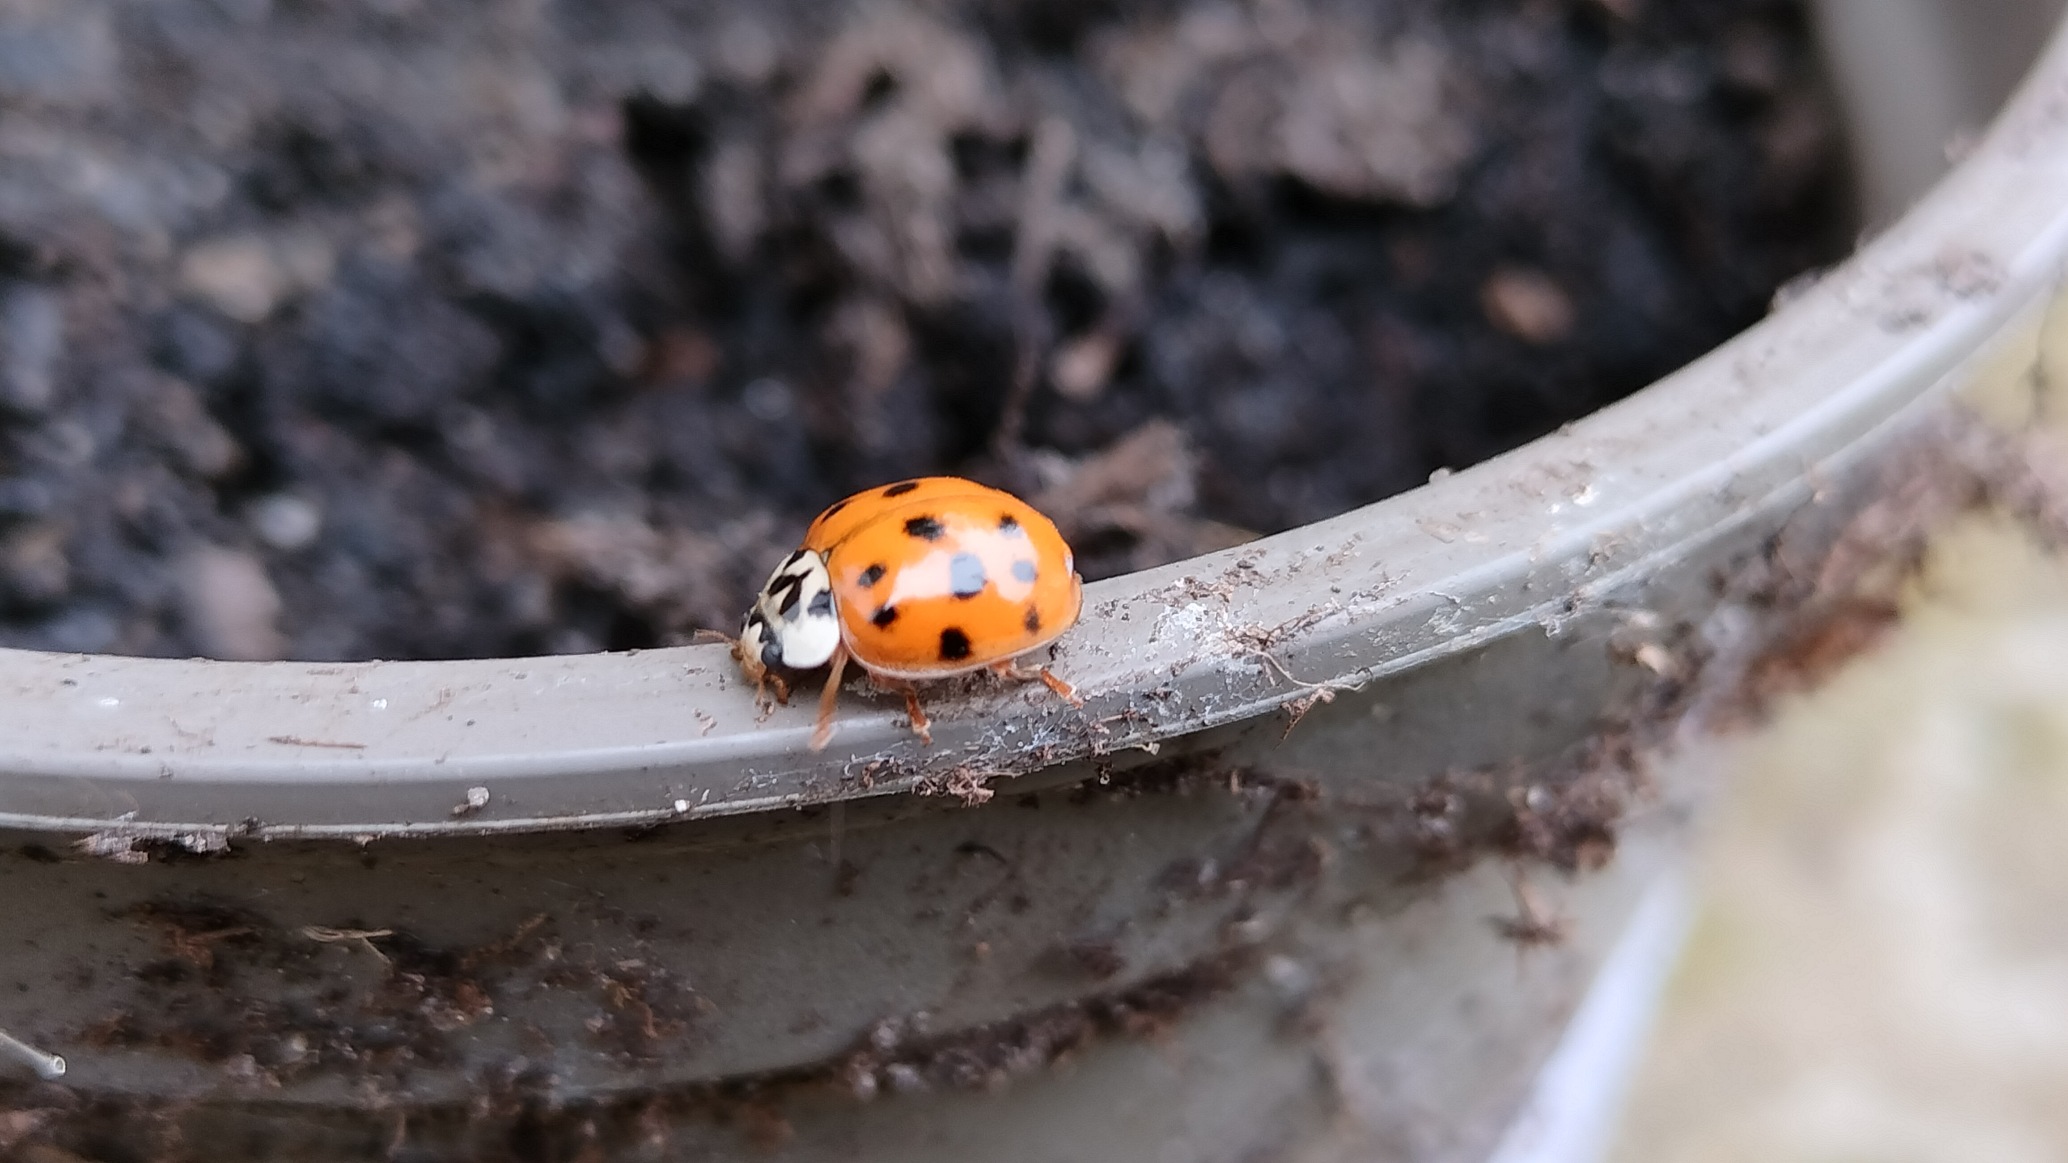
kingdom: Animalia
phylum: Arthropoda
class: Insecta
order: Coleoptera
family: Coccinellidae
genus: Harmonia
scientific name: Harmonia axyridis
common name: Harlekinmariehøne
